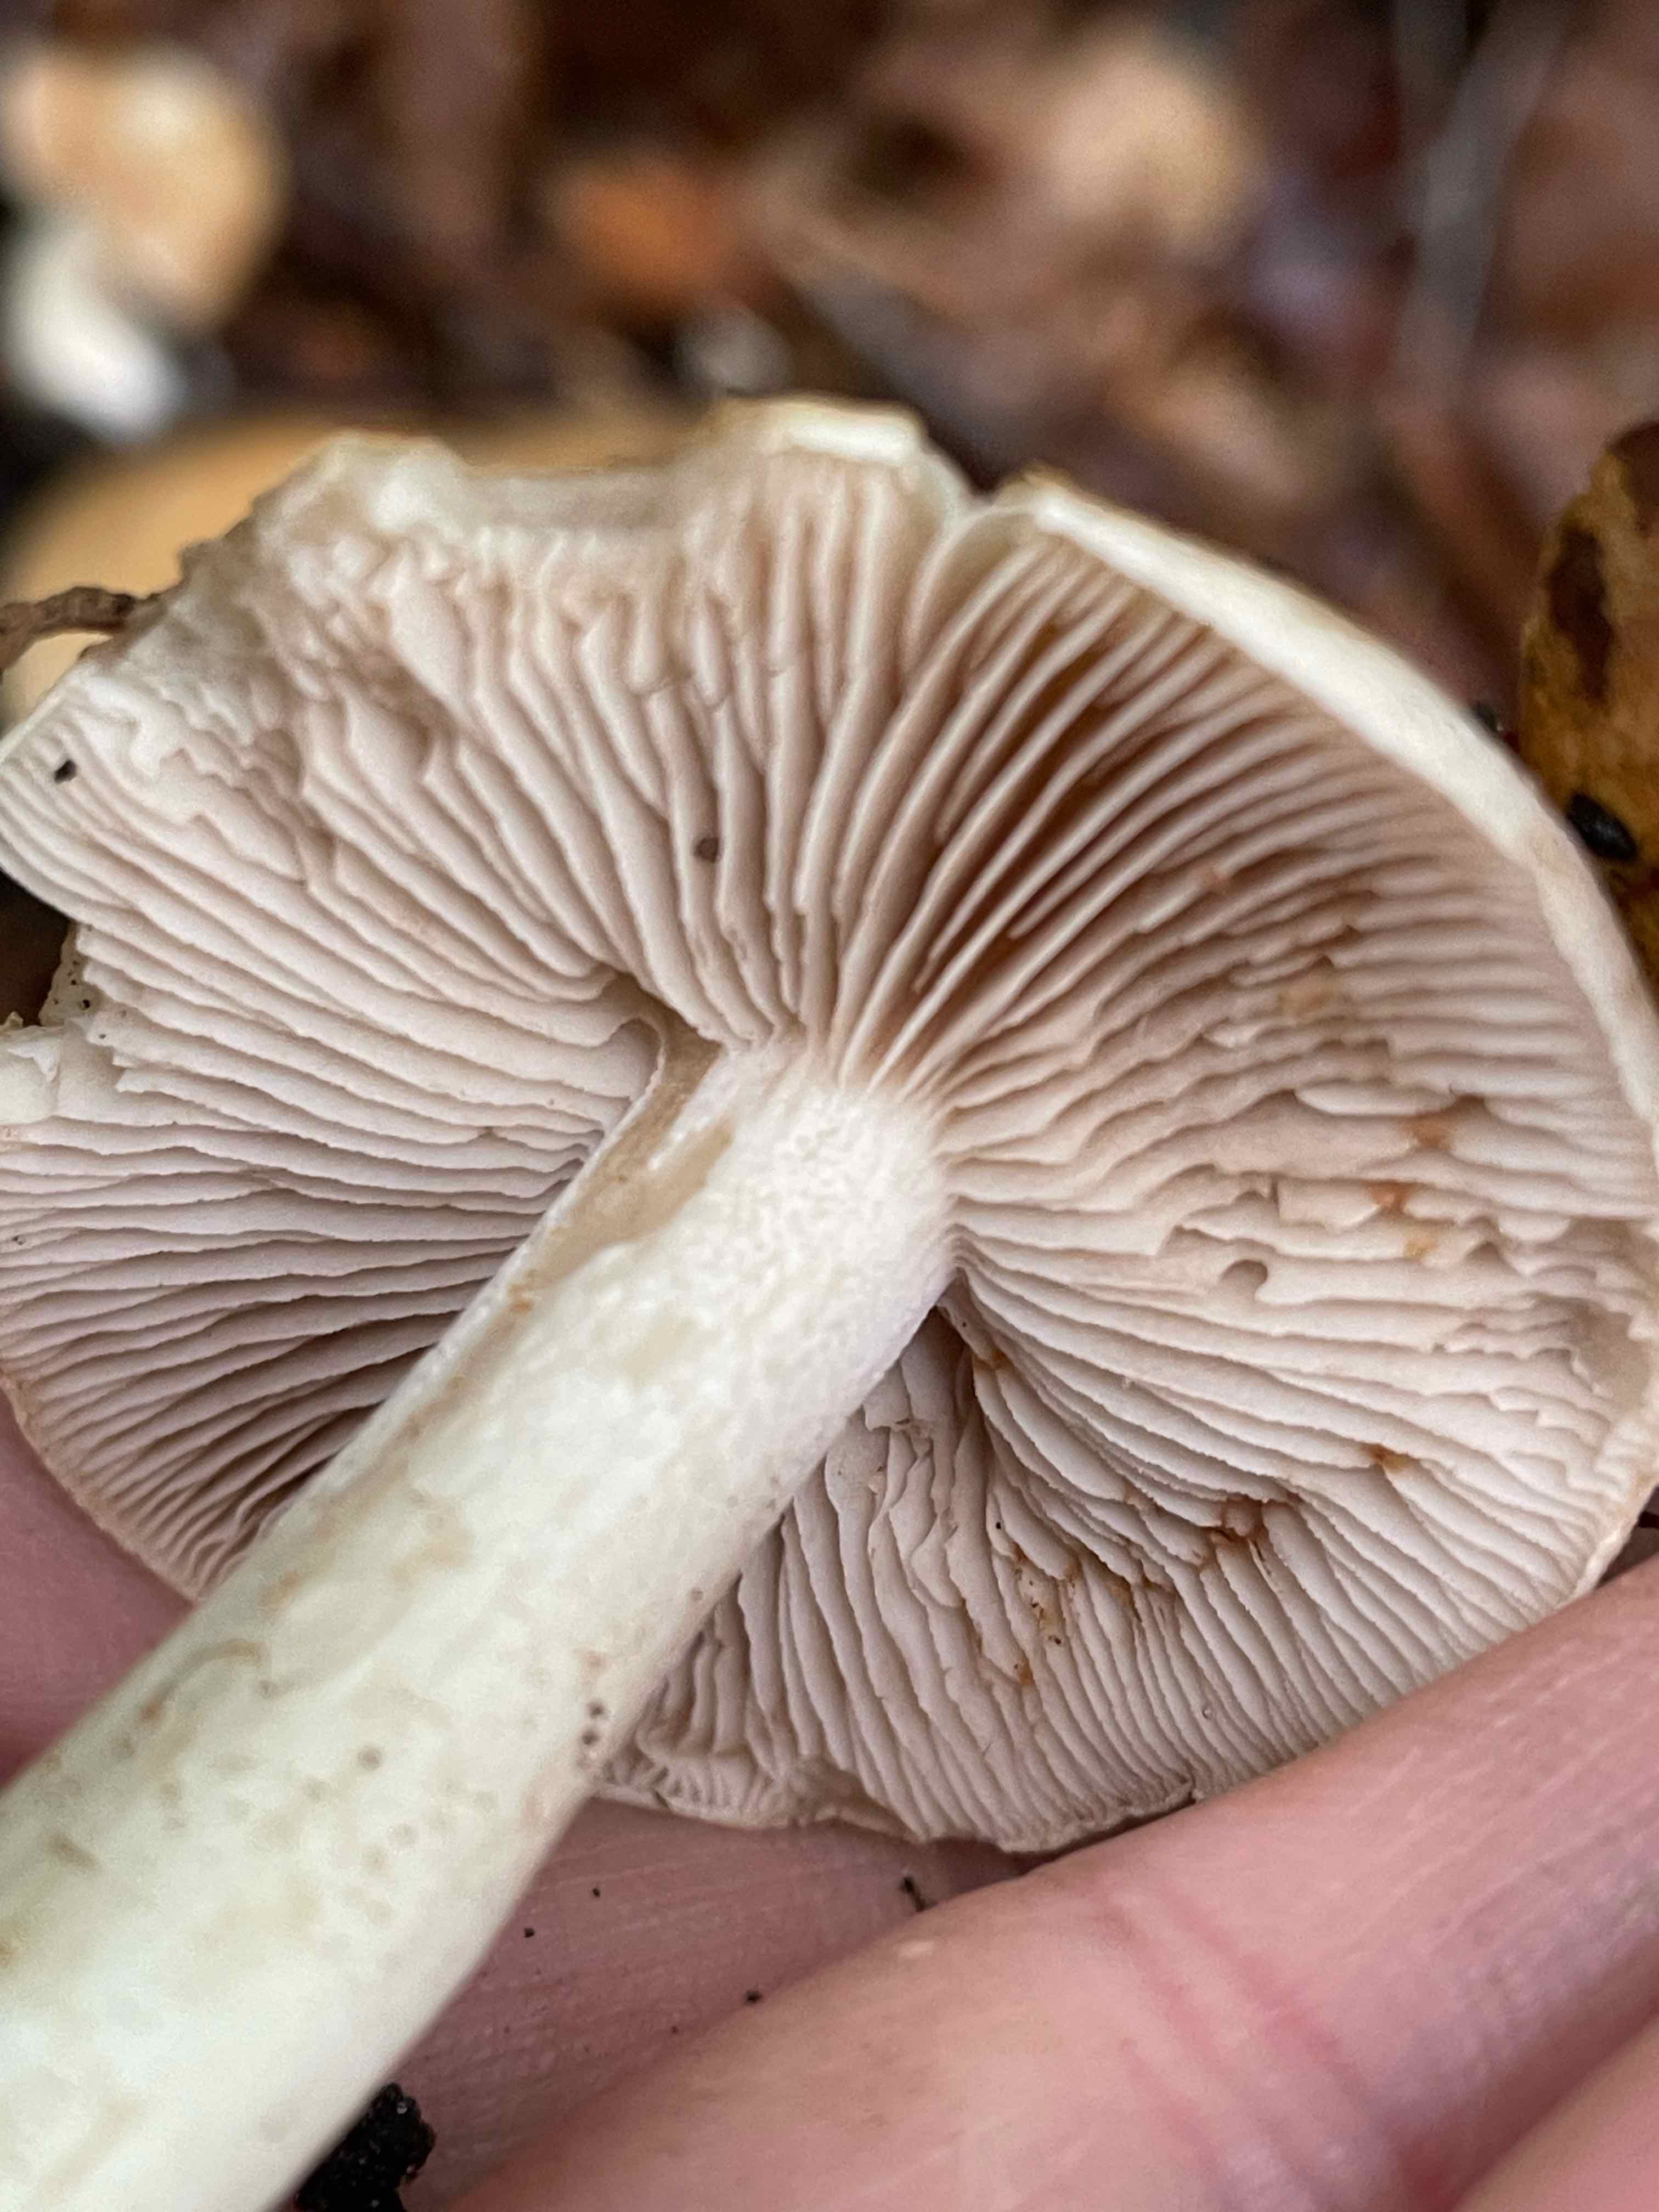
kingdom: Fungi
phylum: Basidiomycota
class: Agaricomycetes
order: Agaricales
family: Hymenogastraceae
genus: Hebeloma
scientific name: Hebeloma crustuliniforme
